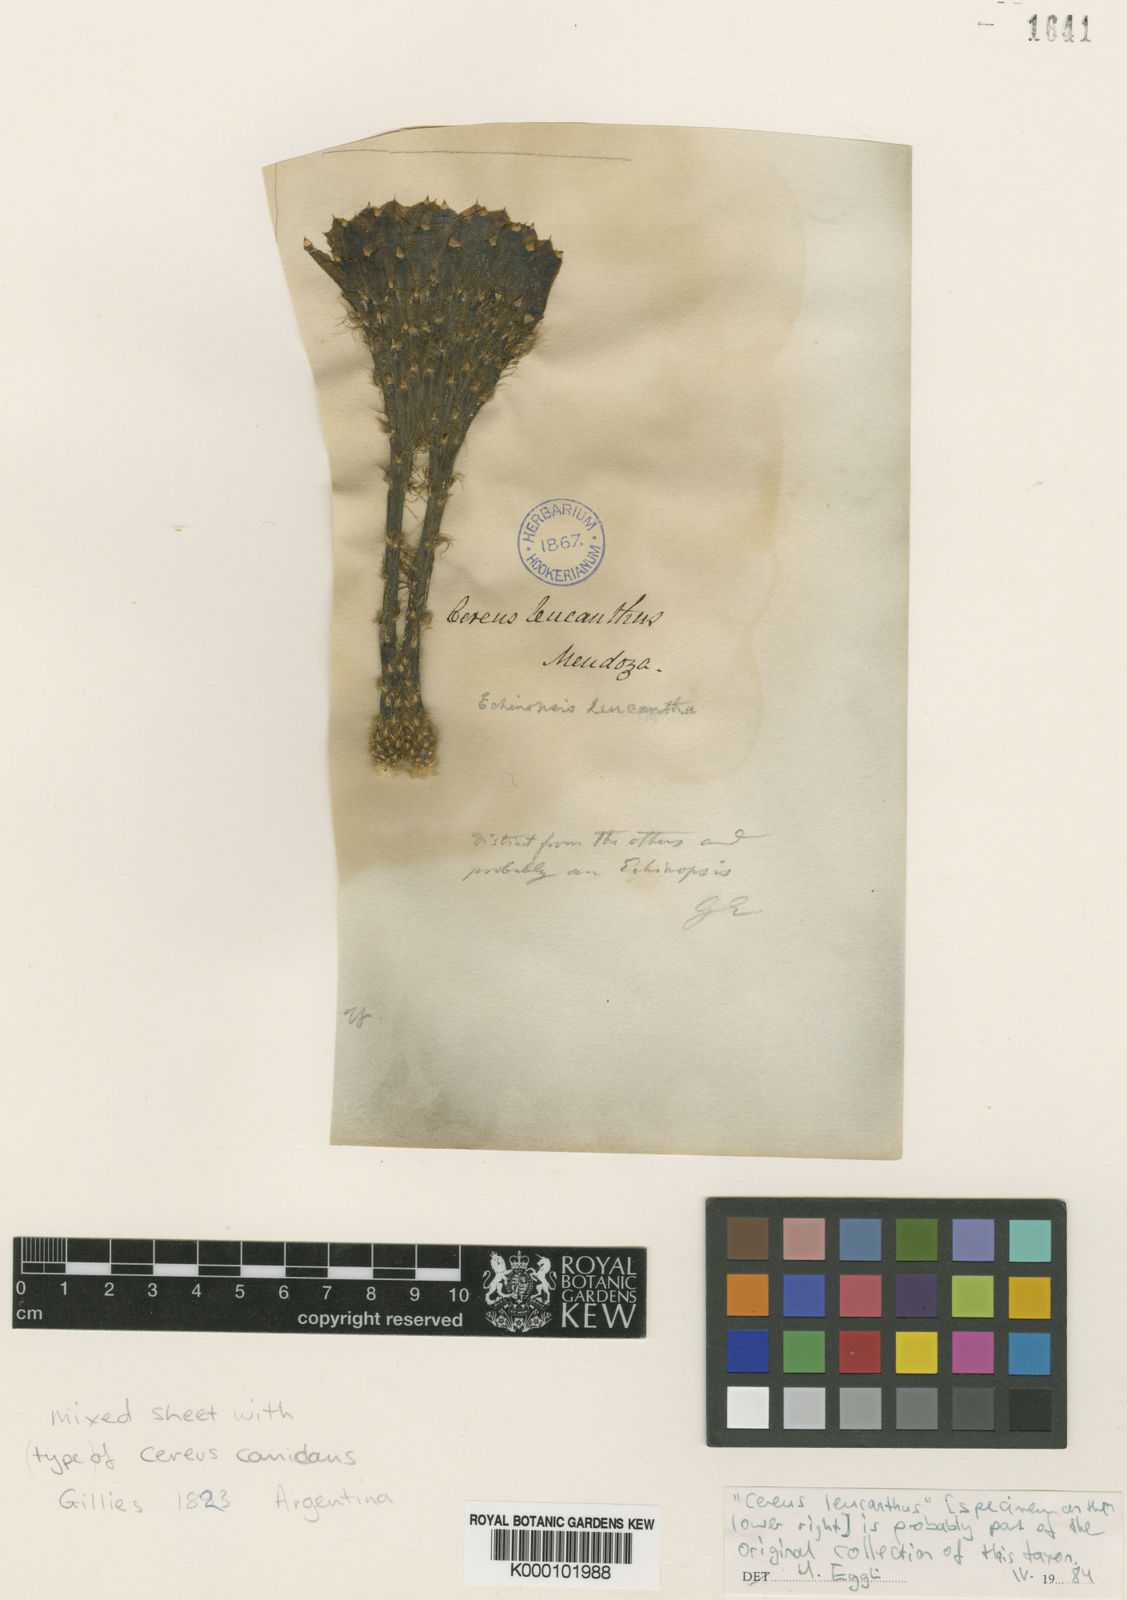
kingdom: Plantae
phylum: Tracheophyta
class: Magnoliopsida
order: Caryophyllales
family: Cactaceae
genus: Acanthocalycium
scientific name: Acanthocalycium leucanthum
